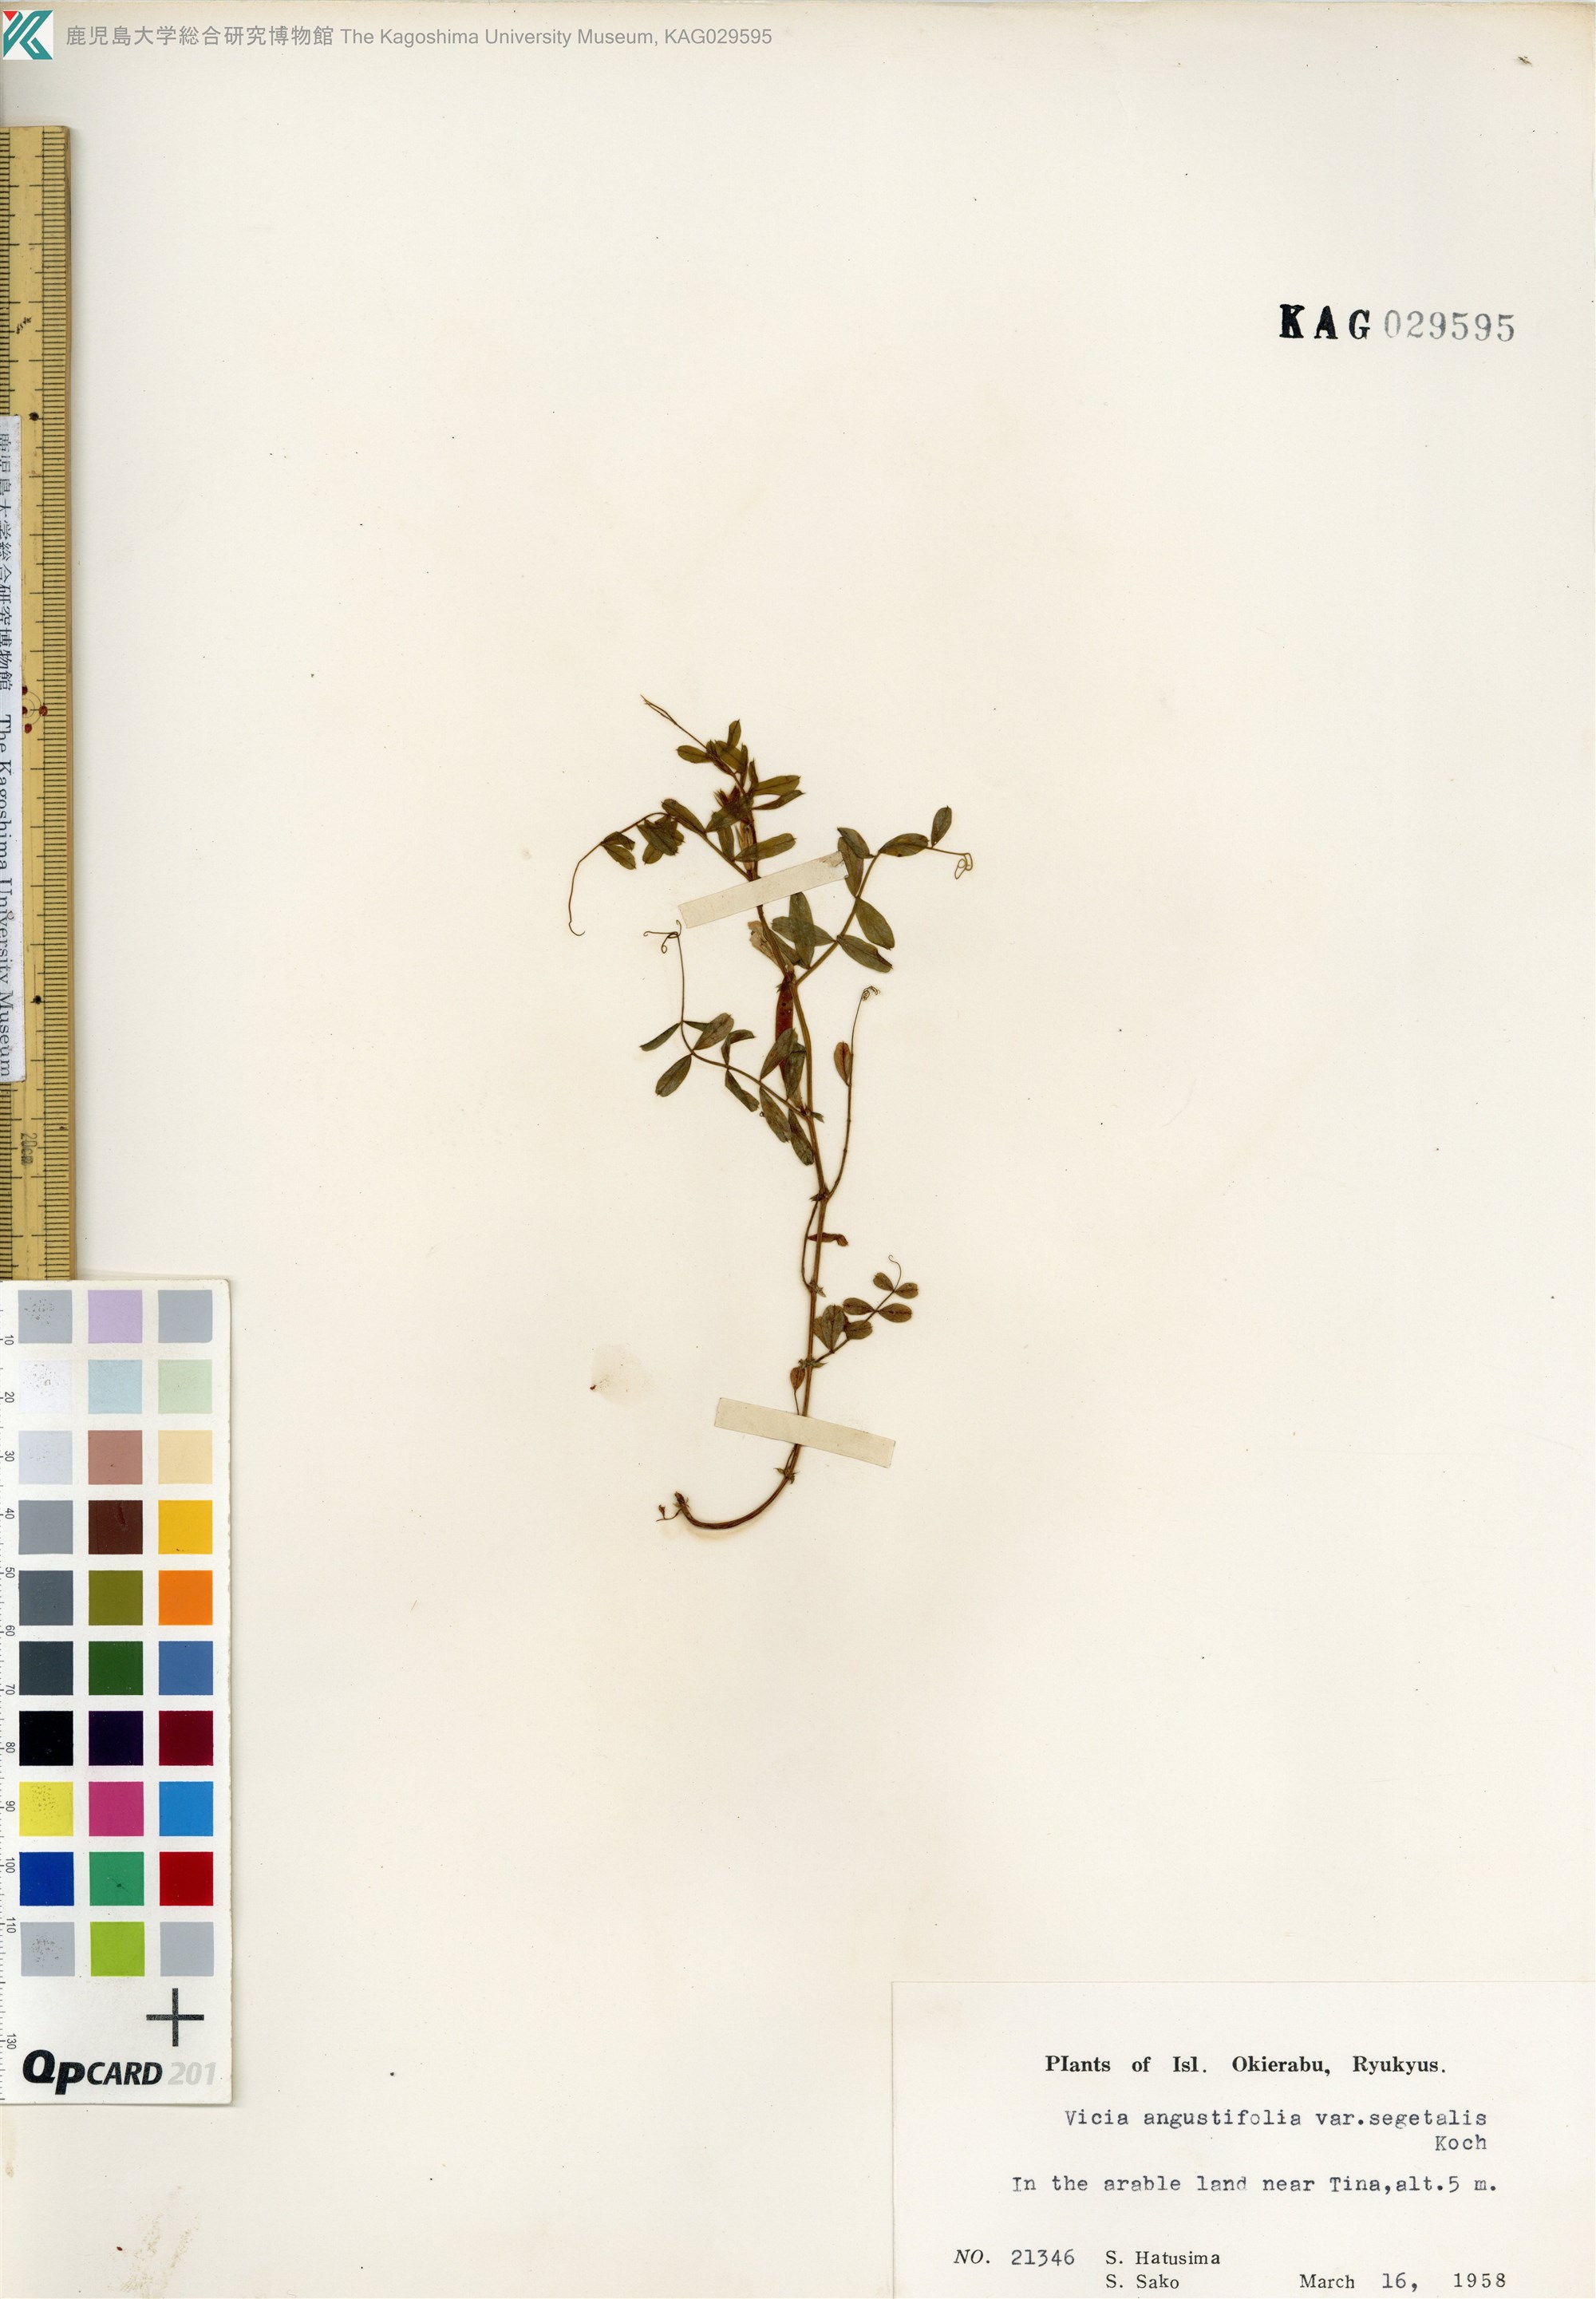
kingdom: Plantae
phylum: Tracheophyta
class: Magnoliopsida
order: Fabales
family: Fabaceae
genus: Vicia
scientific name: Vicia sativa
